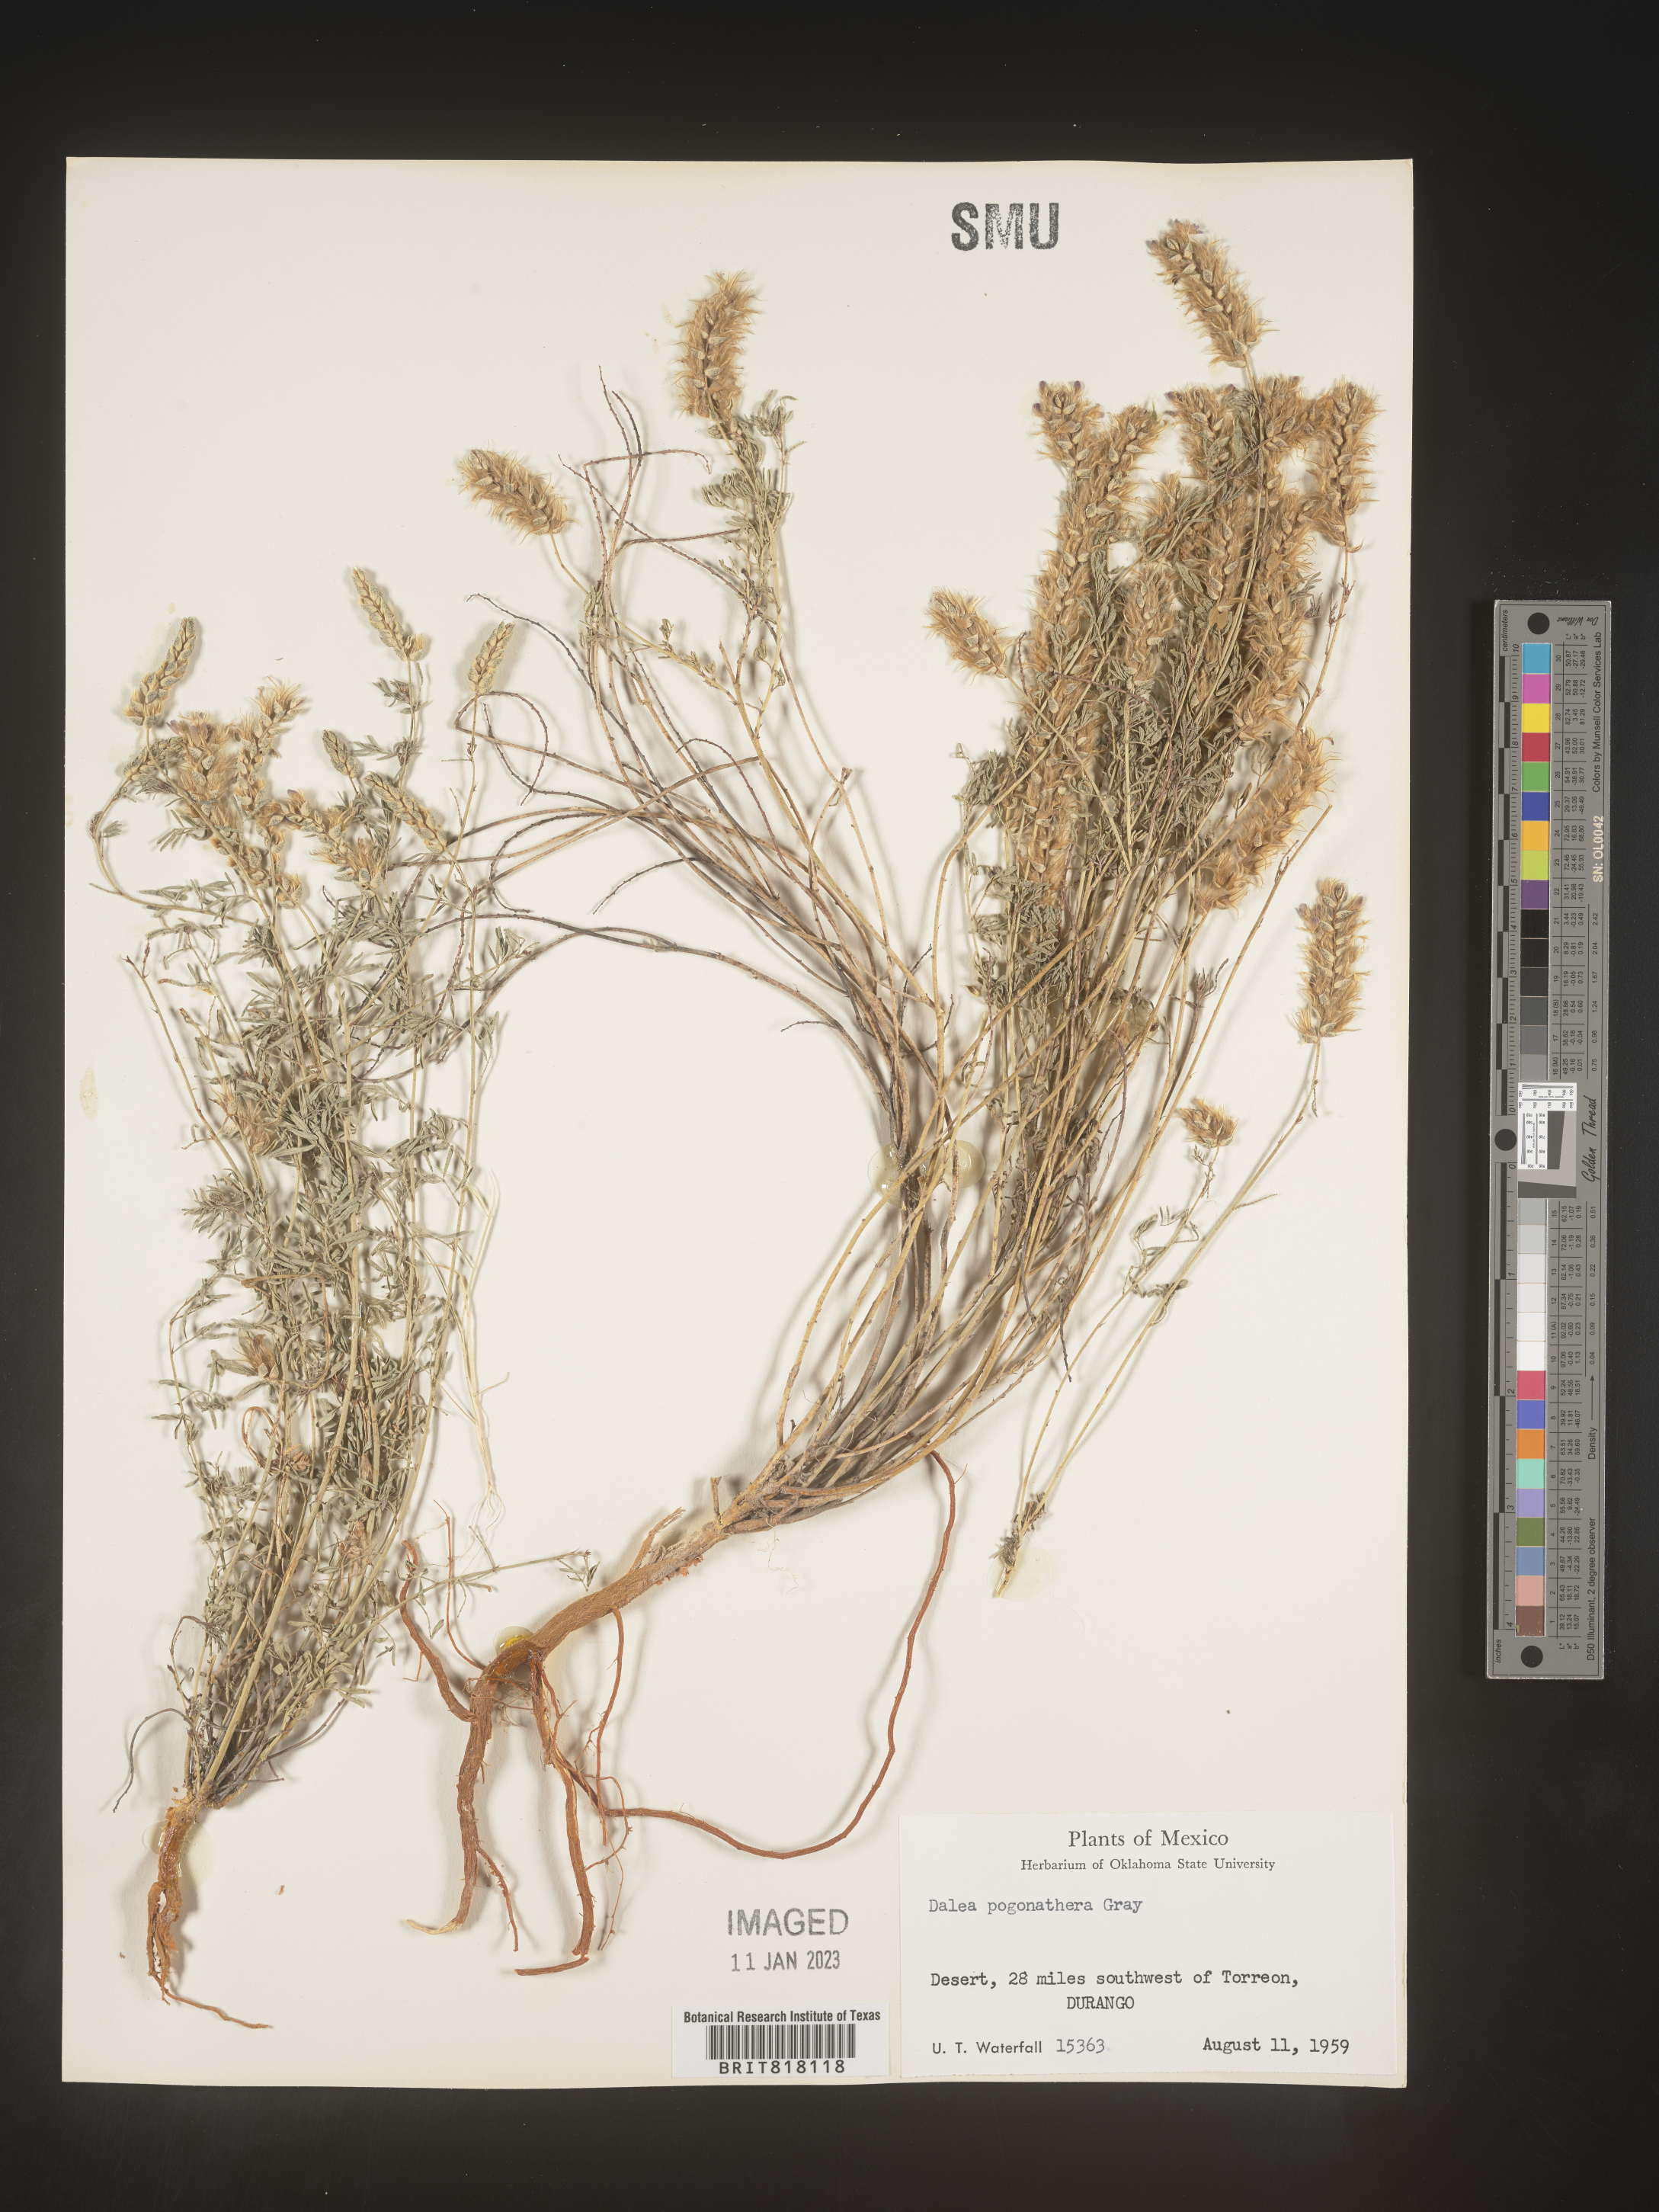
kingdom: Plantae
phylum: Tracheophyta
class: Magnoliopsida
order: Fabales
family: Fabaceae
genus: Dalea
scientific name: Dalea
